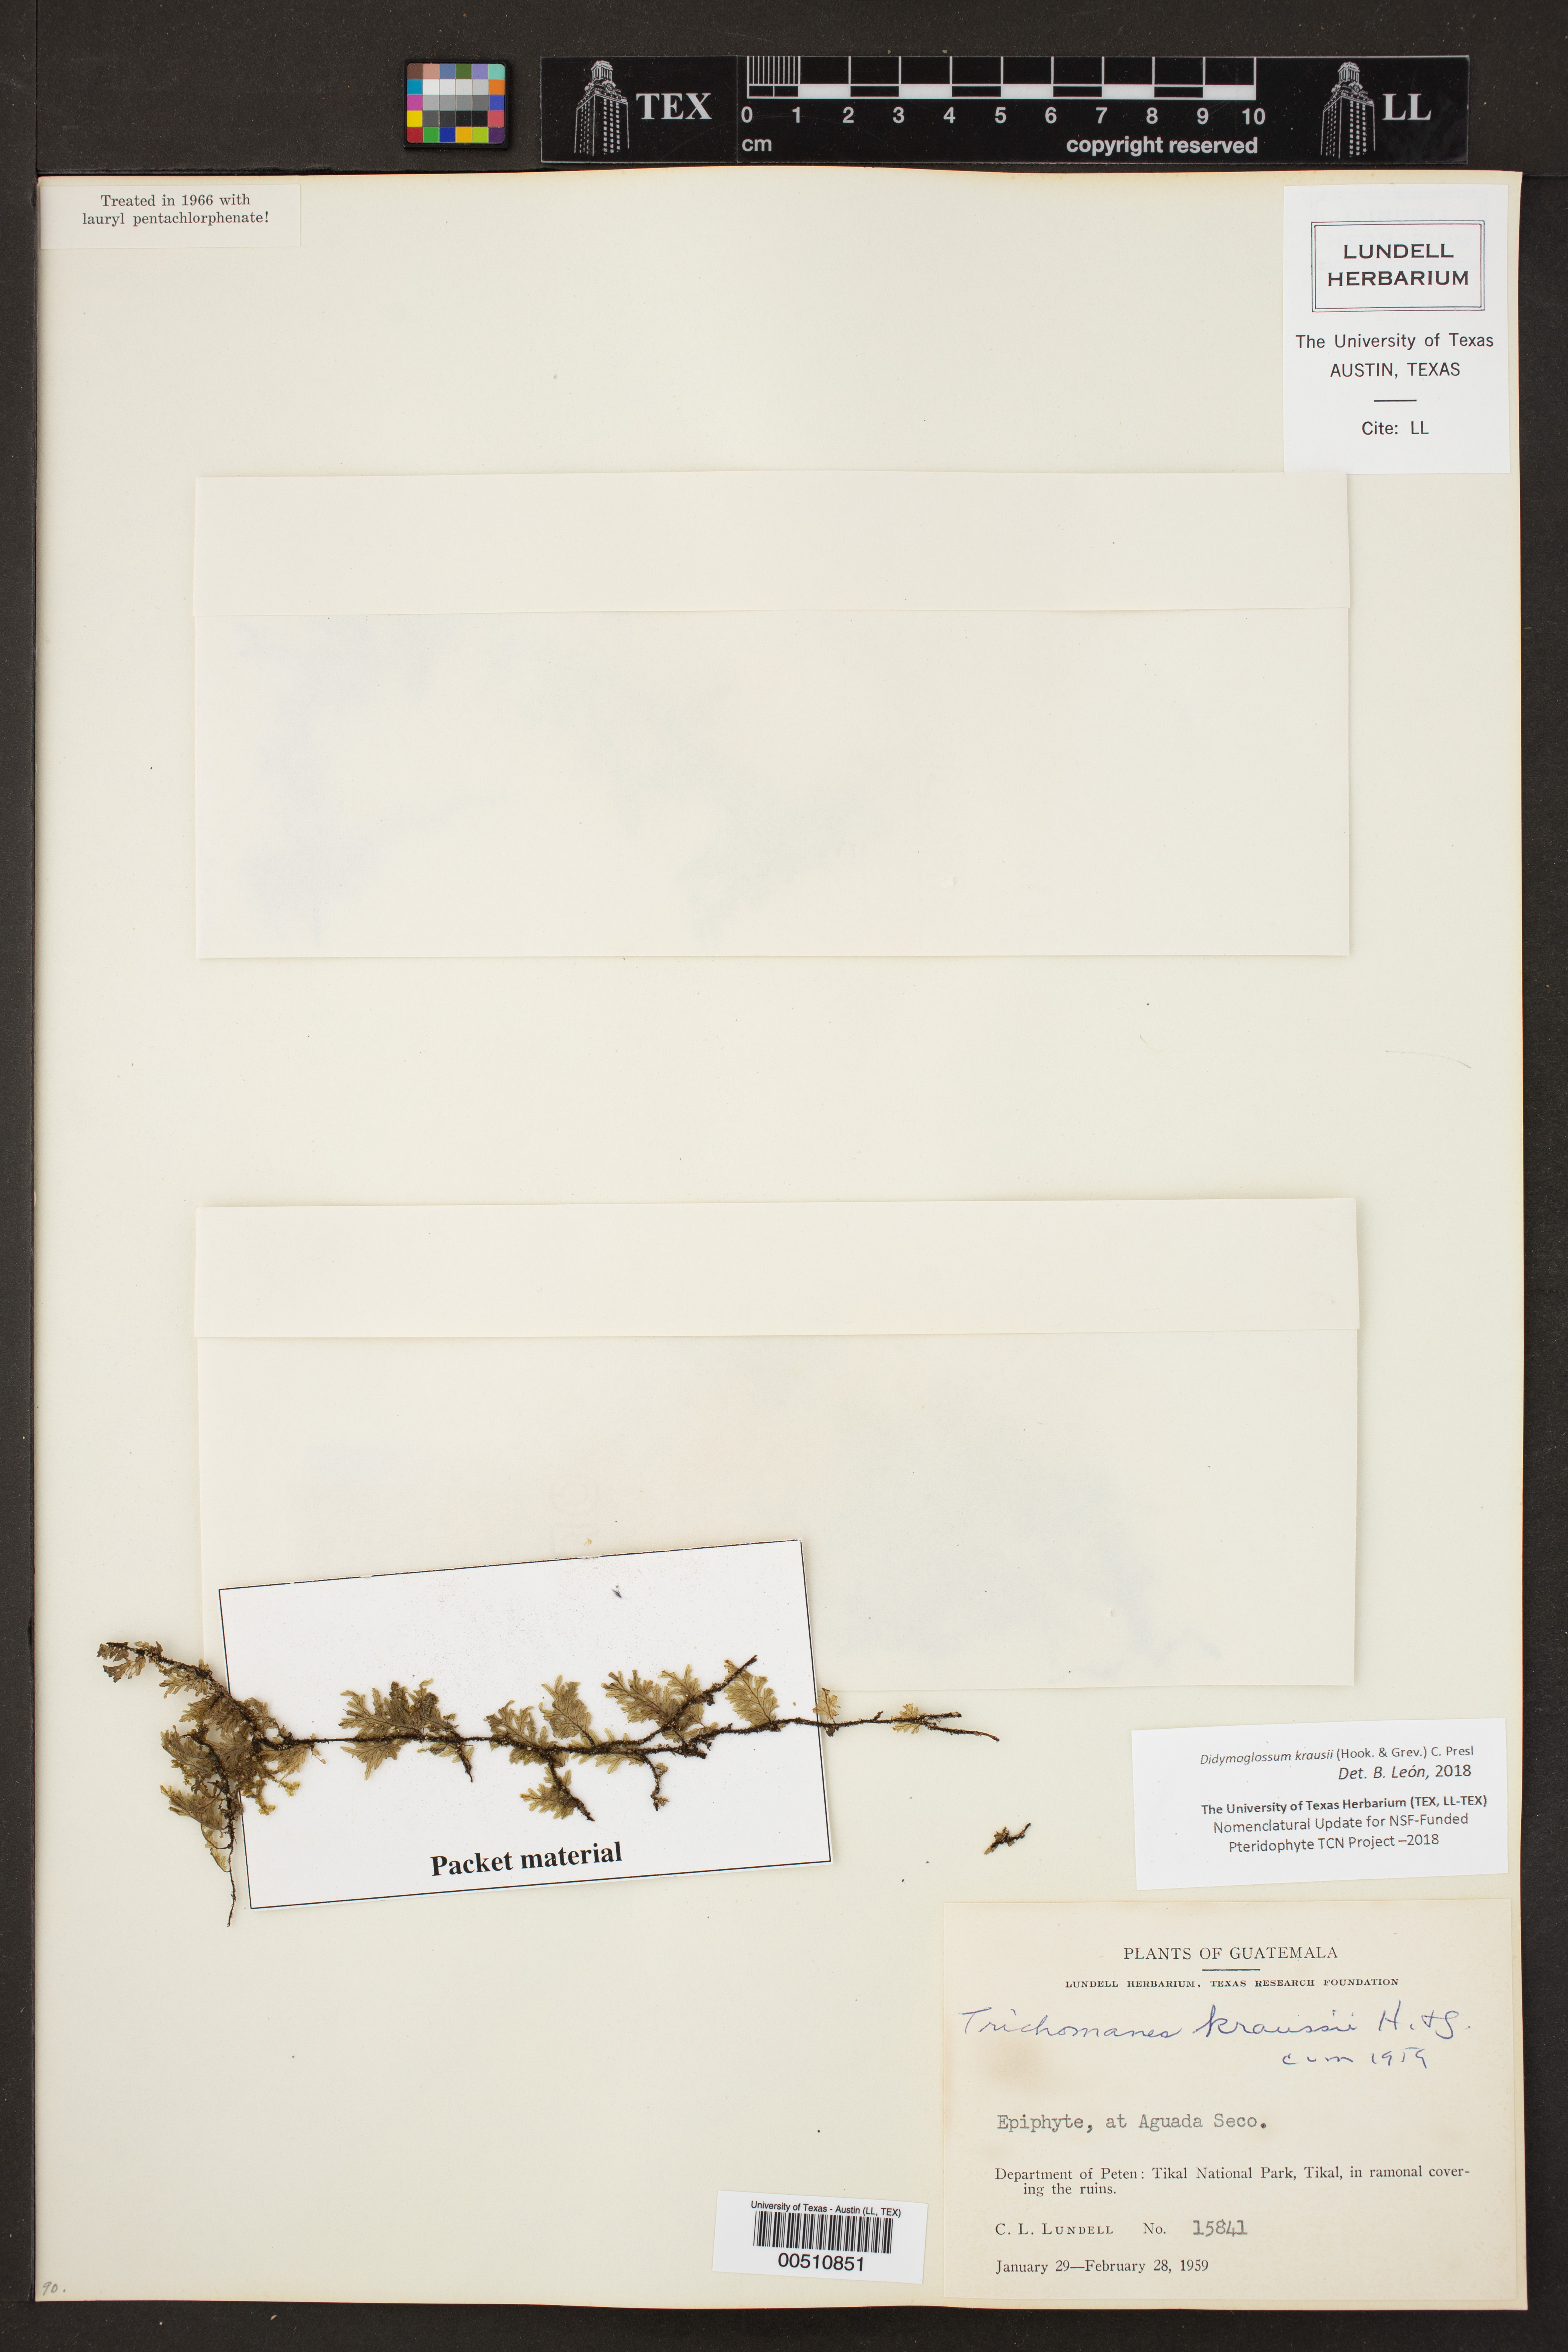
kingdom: Plantae
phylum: Tracheophyta
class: Polypodiopsida
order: Hymenophyllales
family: Hymenophyllaceae
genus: Didymoglossum
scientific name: Didymoglossum kraussii
